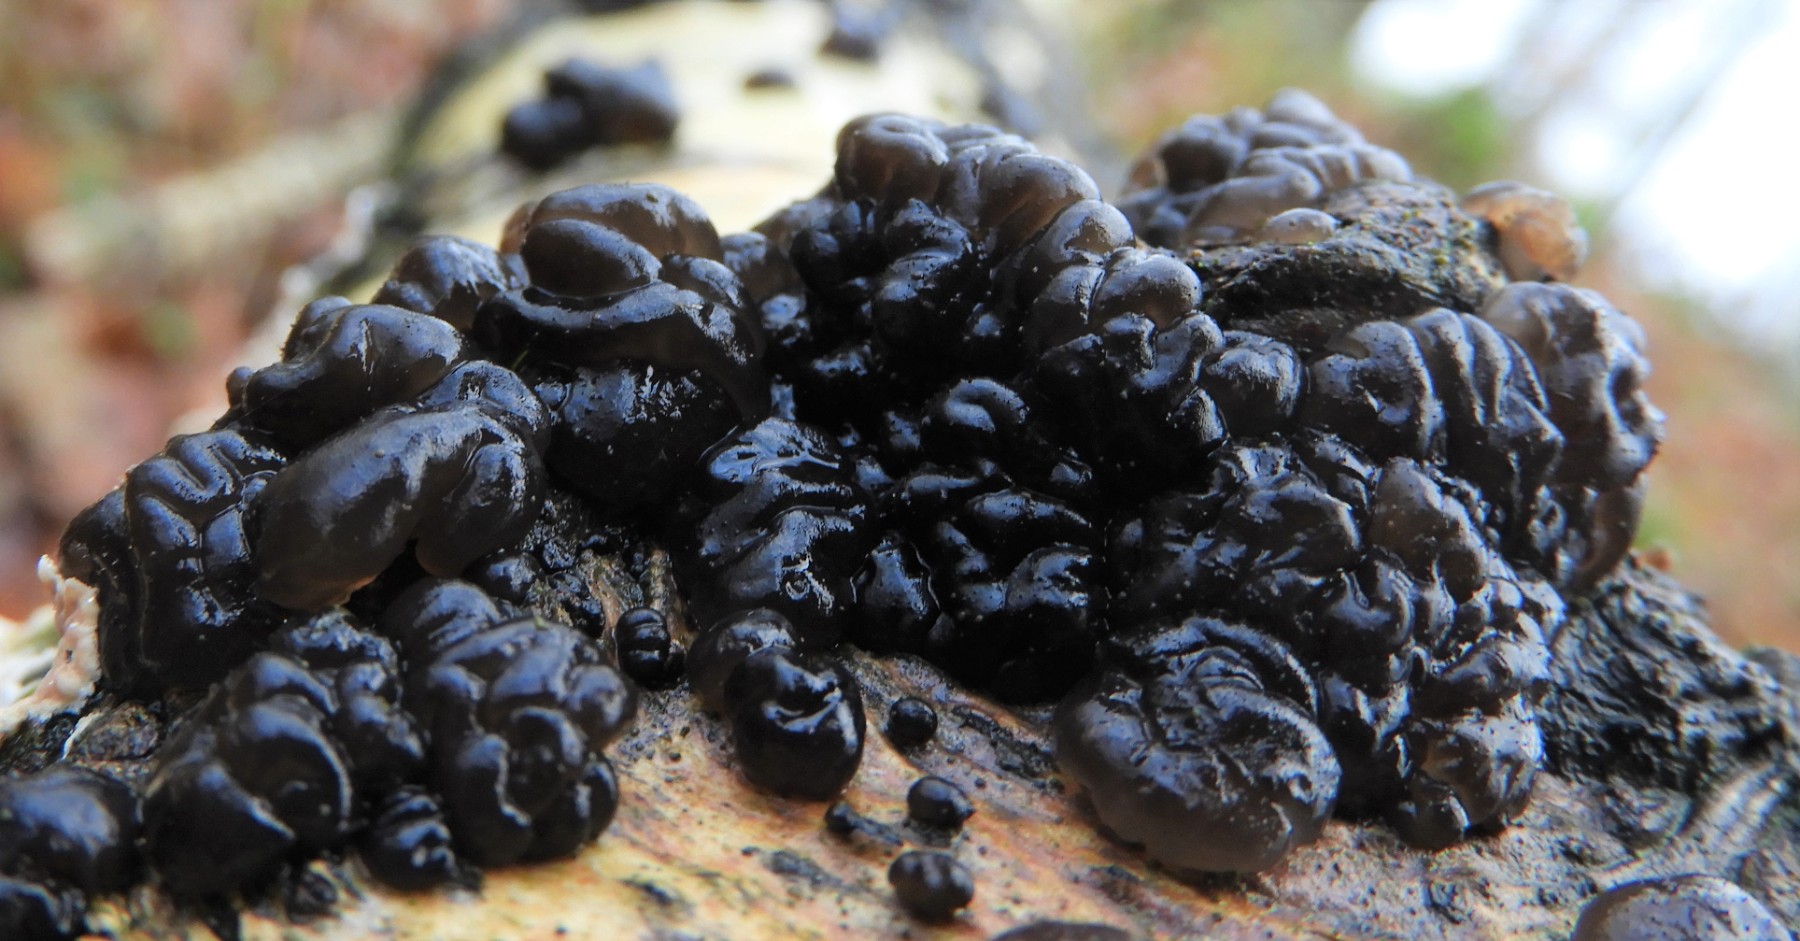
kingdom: Fungi
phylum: Basidiomycota
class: Agaricomycetes
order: Auriculariales
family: Auriculariaceae
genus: Exidia
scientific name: Exidia nigricans
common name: almindelig bævretop
